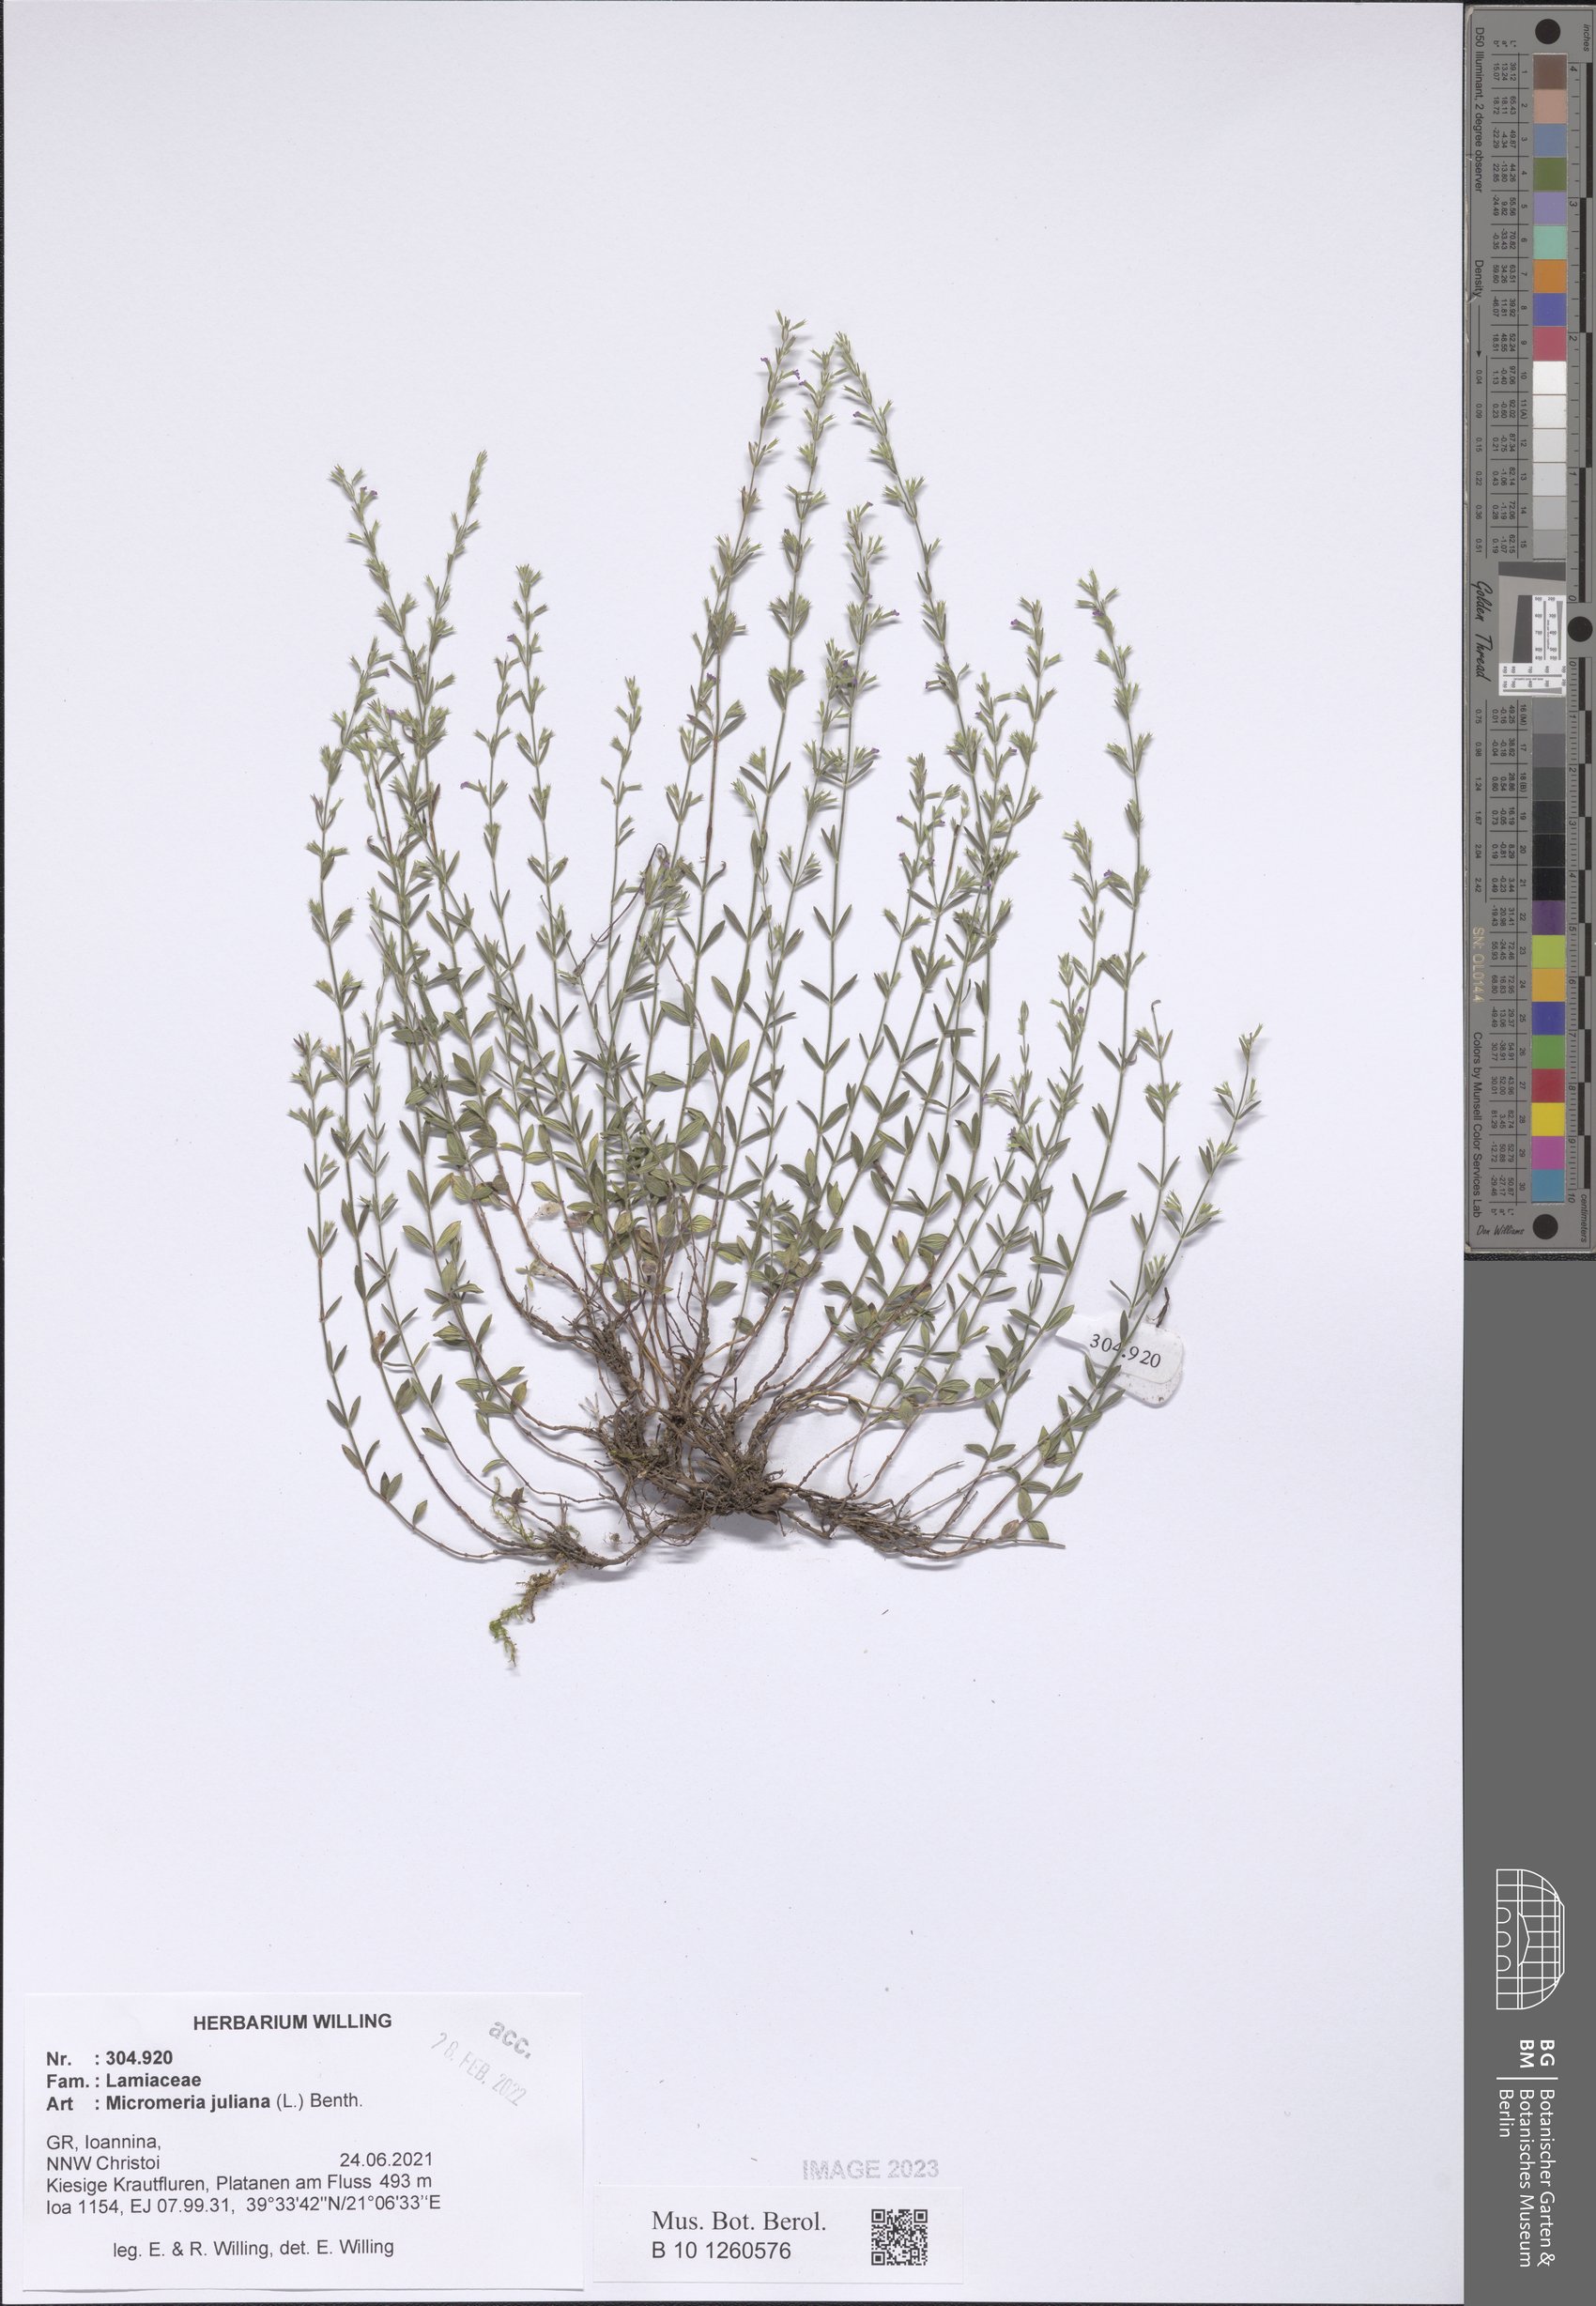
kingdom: Plantae
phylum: Tracheophyta
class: Magnoliopsida
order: Lamiales
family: Lamiaceae
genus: Micromeria
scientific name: Micromeria juliana
